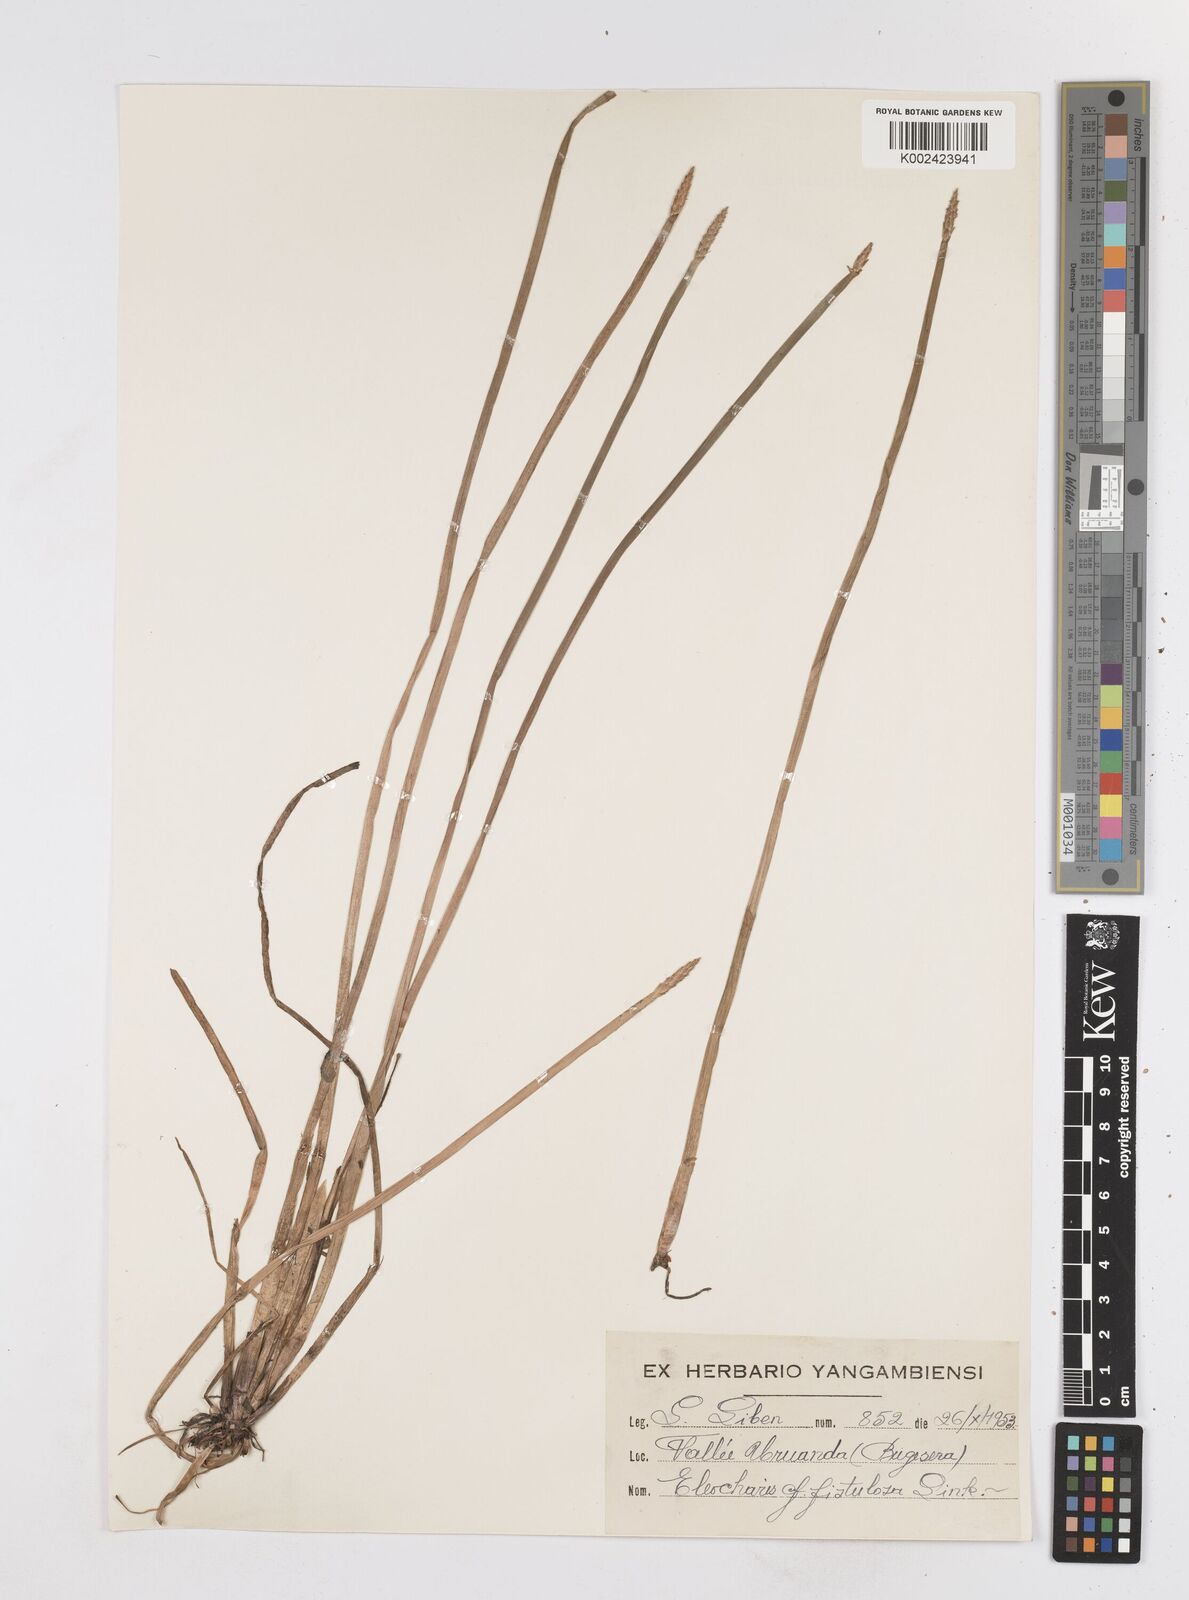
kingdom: Plantae
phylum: Tracheophyta
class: Liliopsida
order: Poales
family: Cyperaceae
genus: Eleocharis
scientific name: Eleocharis acutangula
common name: Acute spikerush
